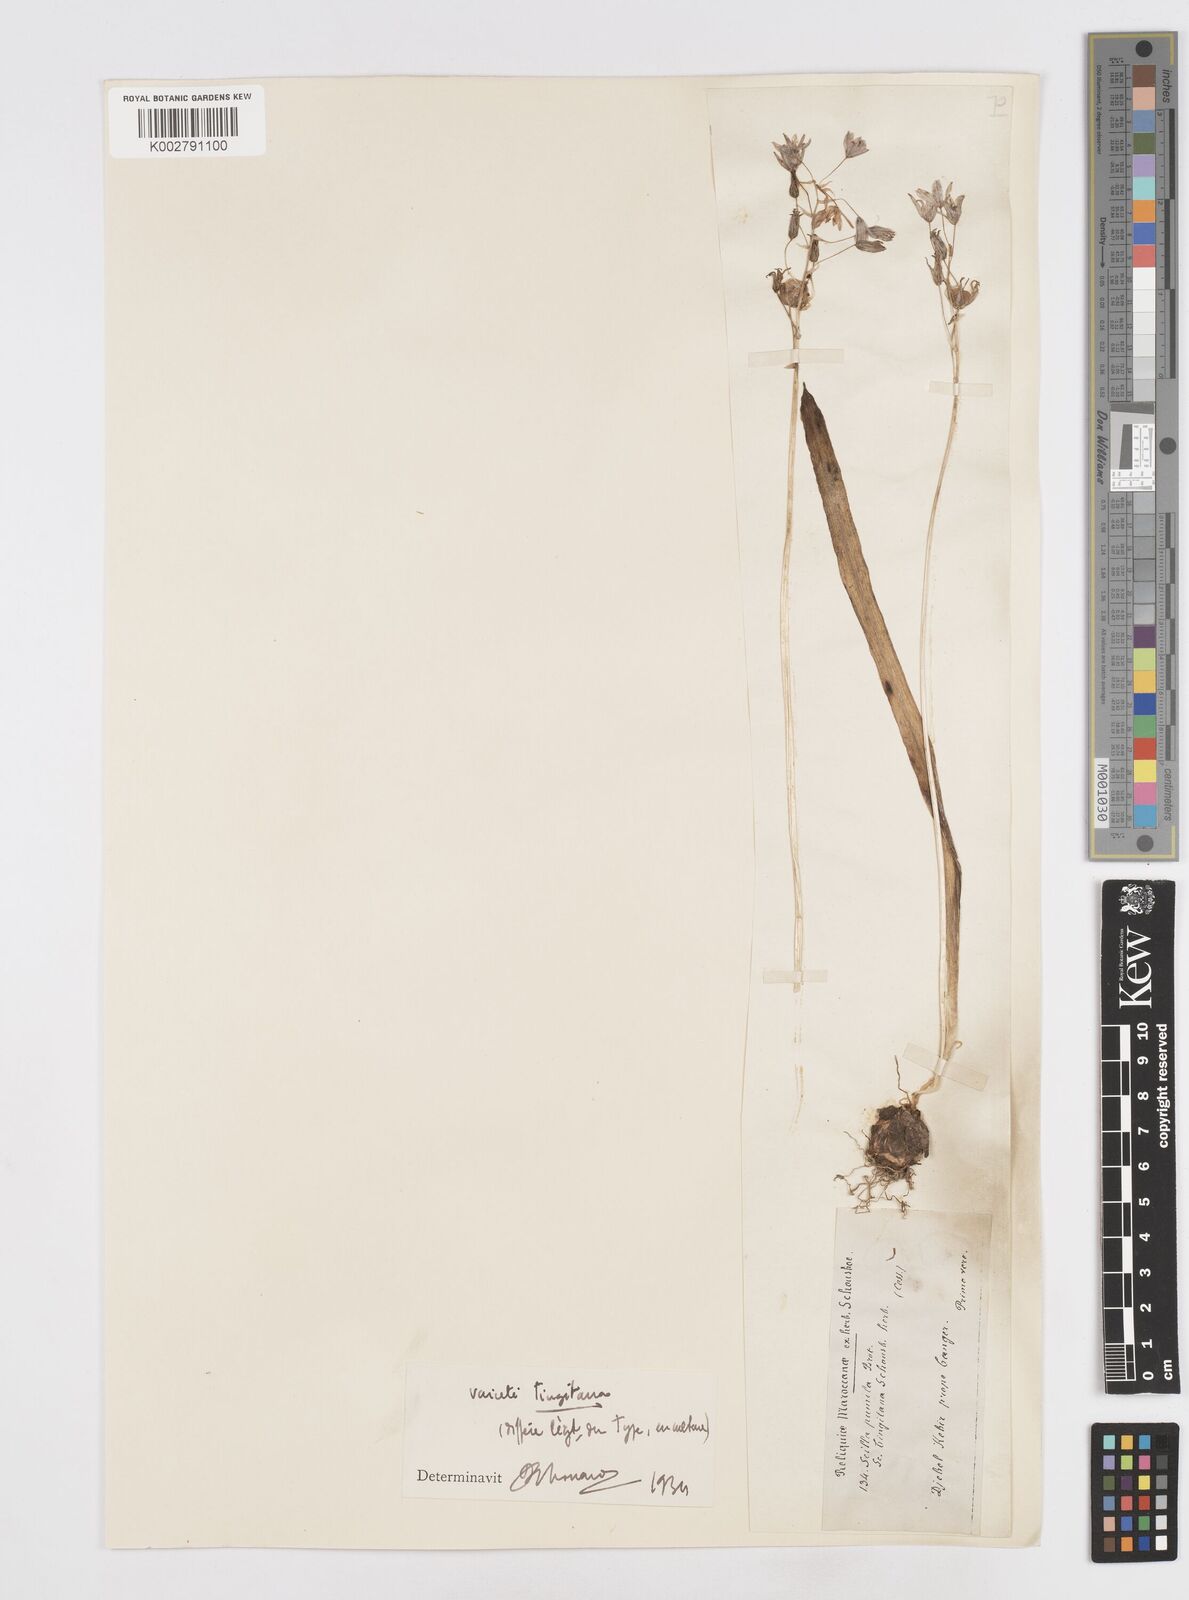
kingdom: Plantae
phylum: Tracheophyta
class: Liliopsida
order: Asparagales
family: Asparagaceae
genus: Scilla
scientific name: Scilla monophyllos
